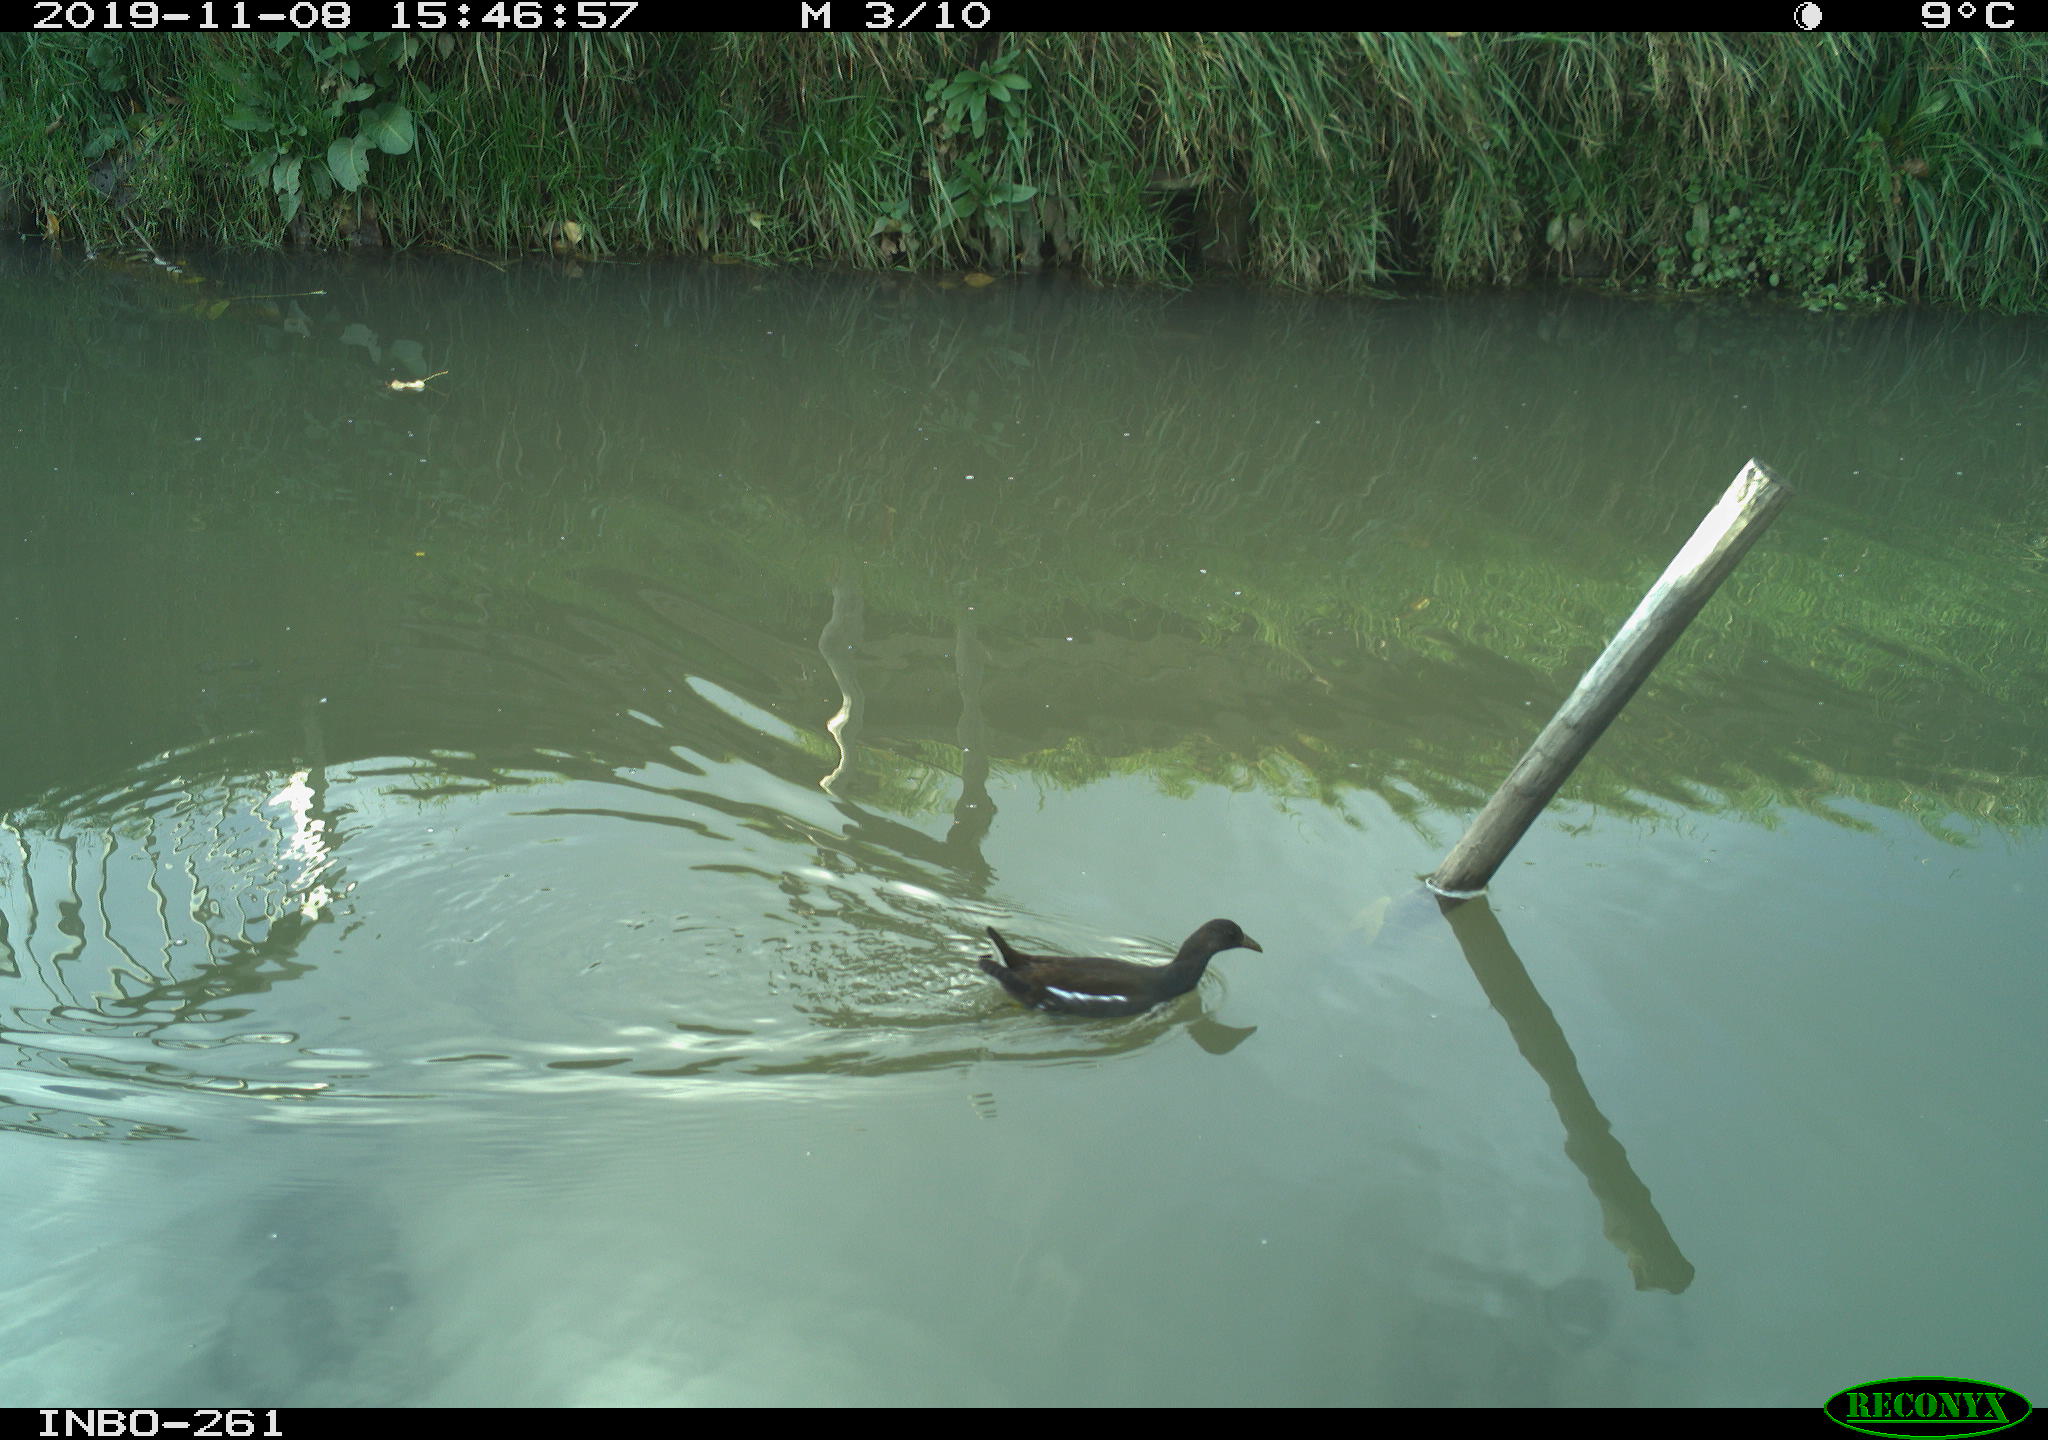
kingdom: Animalia
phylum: Chordata
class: Aves
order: Gruiformes
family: Rallidae
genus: Gallinula
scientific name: Gallinula chloropus
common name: Common moorhen
